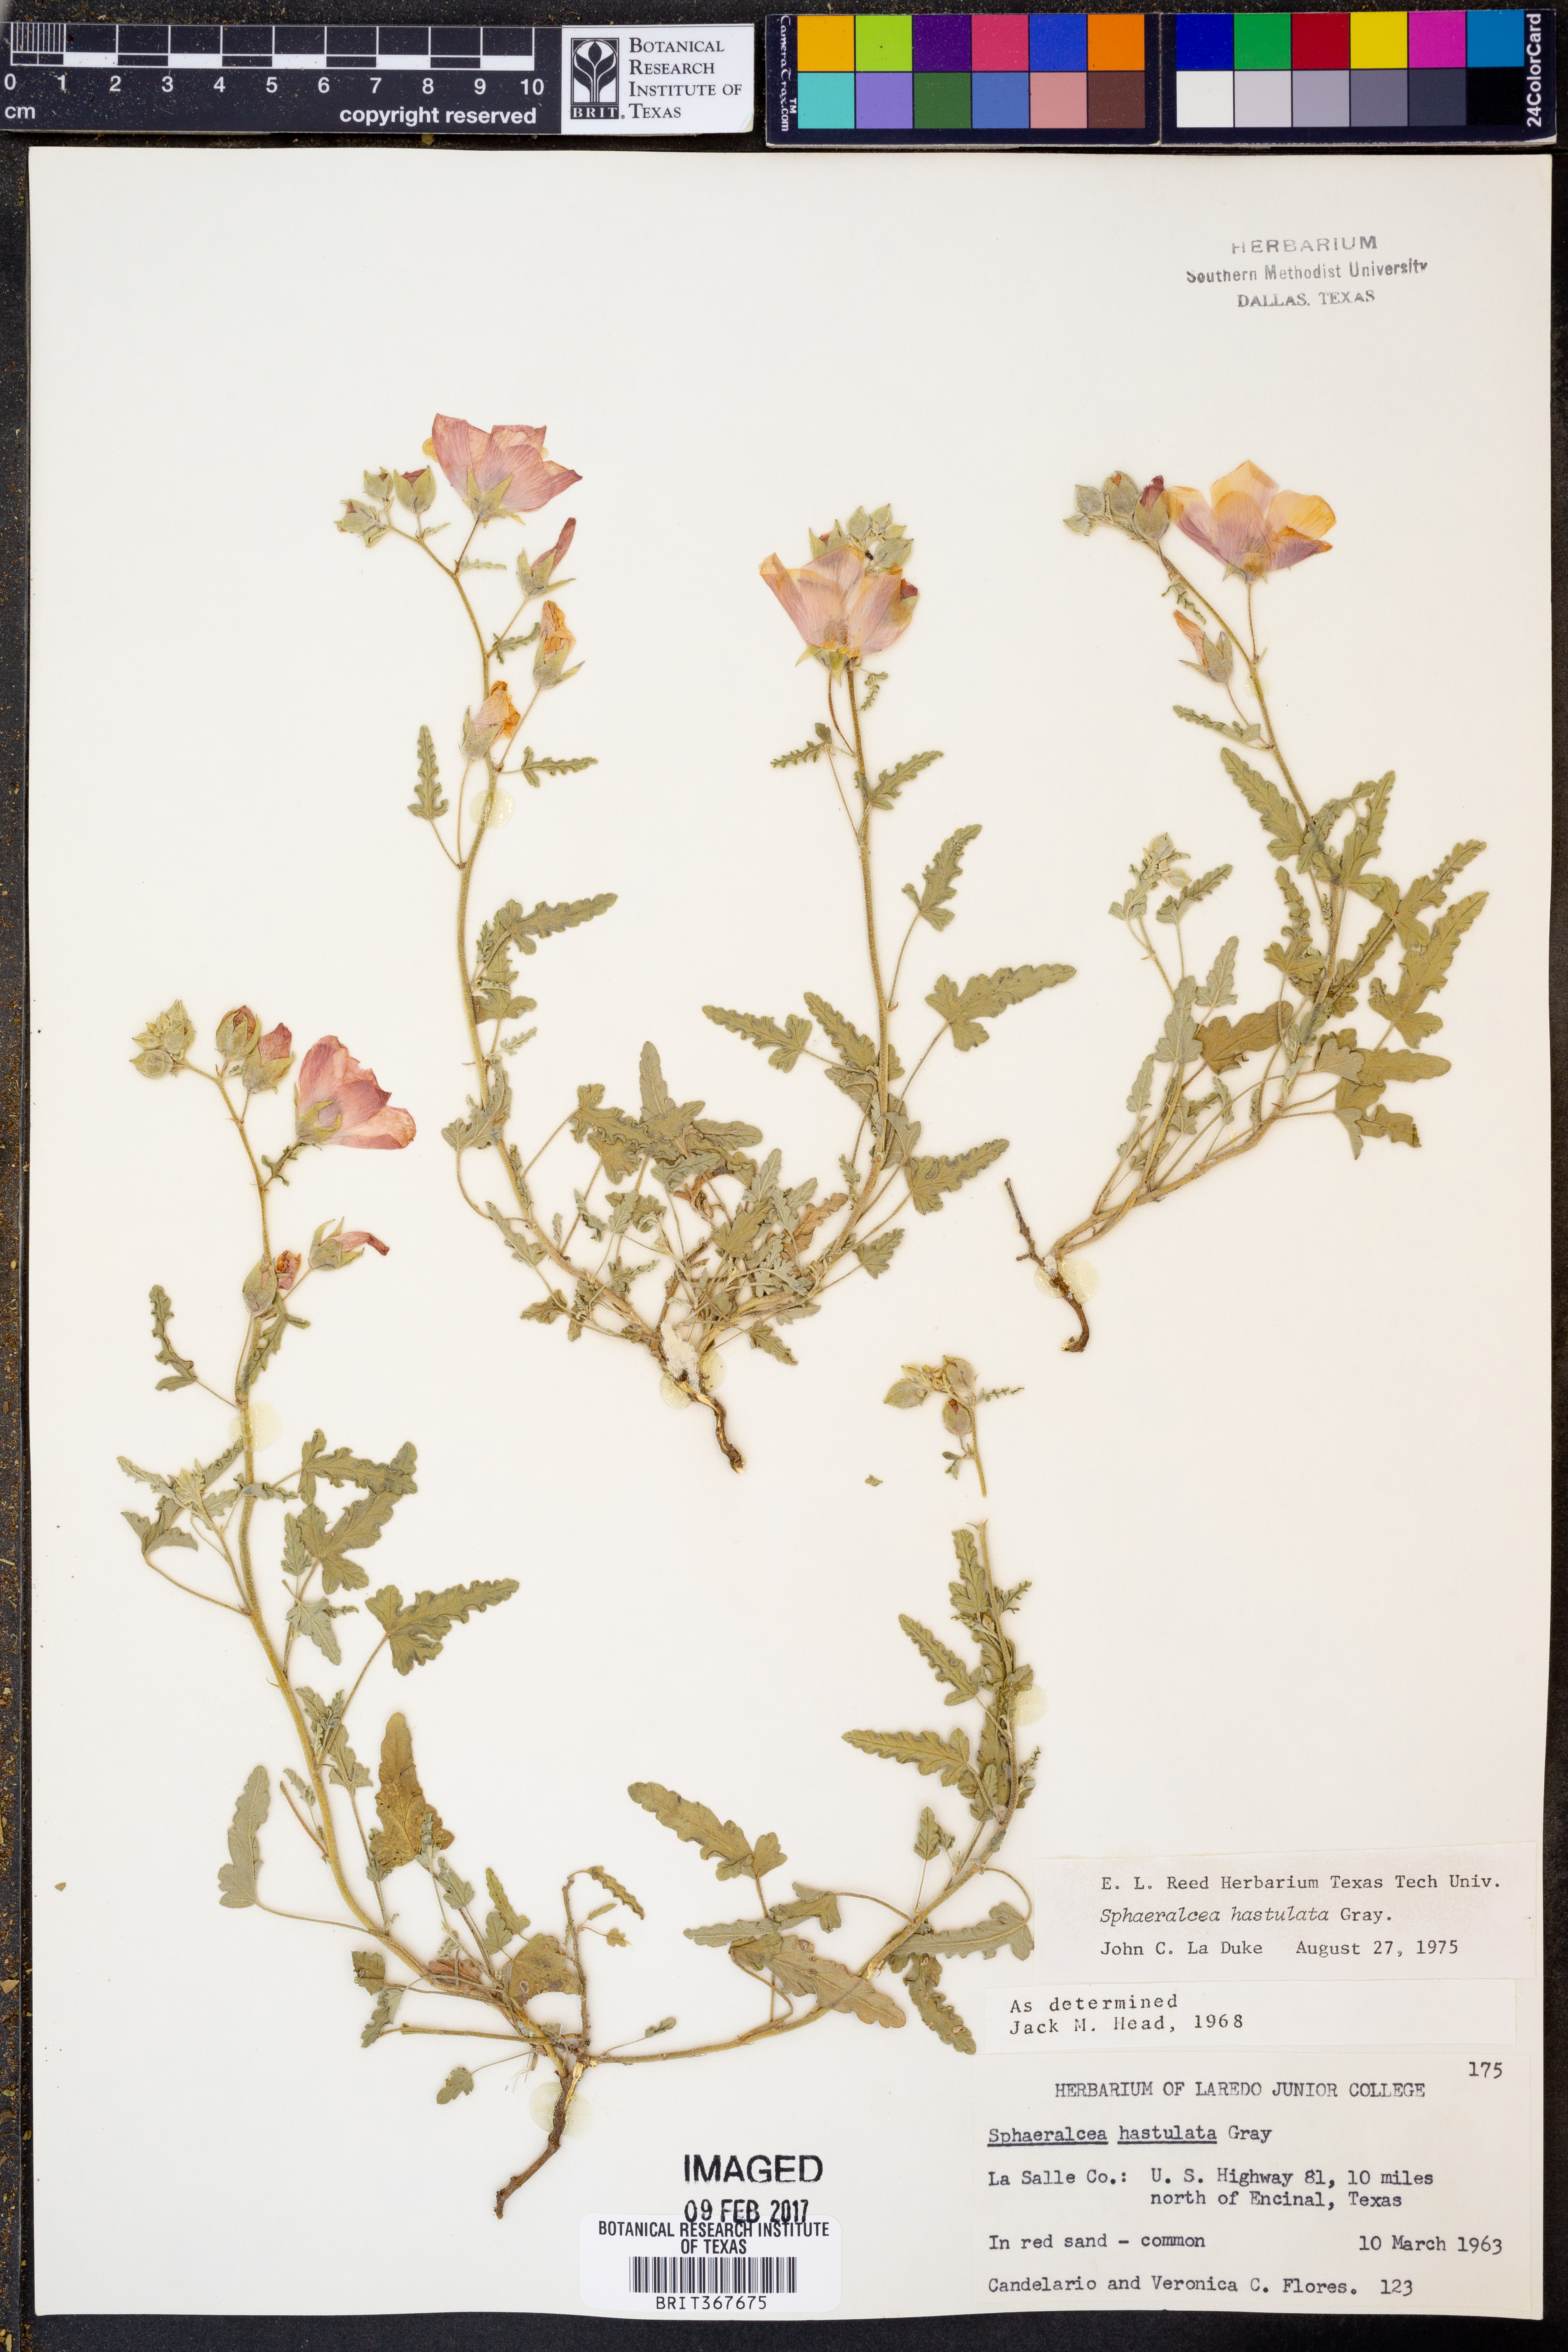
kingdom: Plantae
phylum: Tracheophyta
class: Magnoliopsida
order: Malvales
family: Malvaceae
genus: Sphaeralcea
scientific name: Sphaeralcea hastulata
